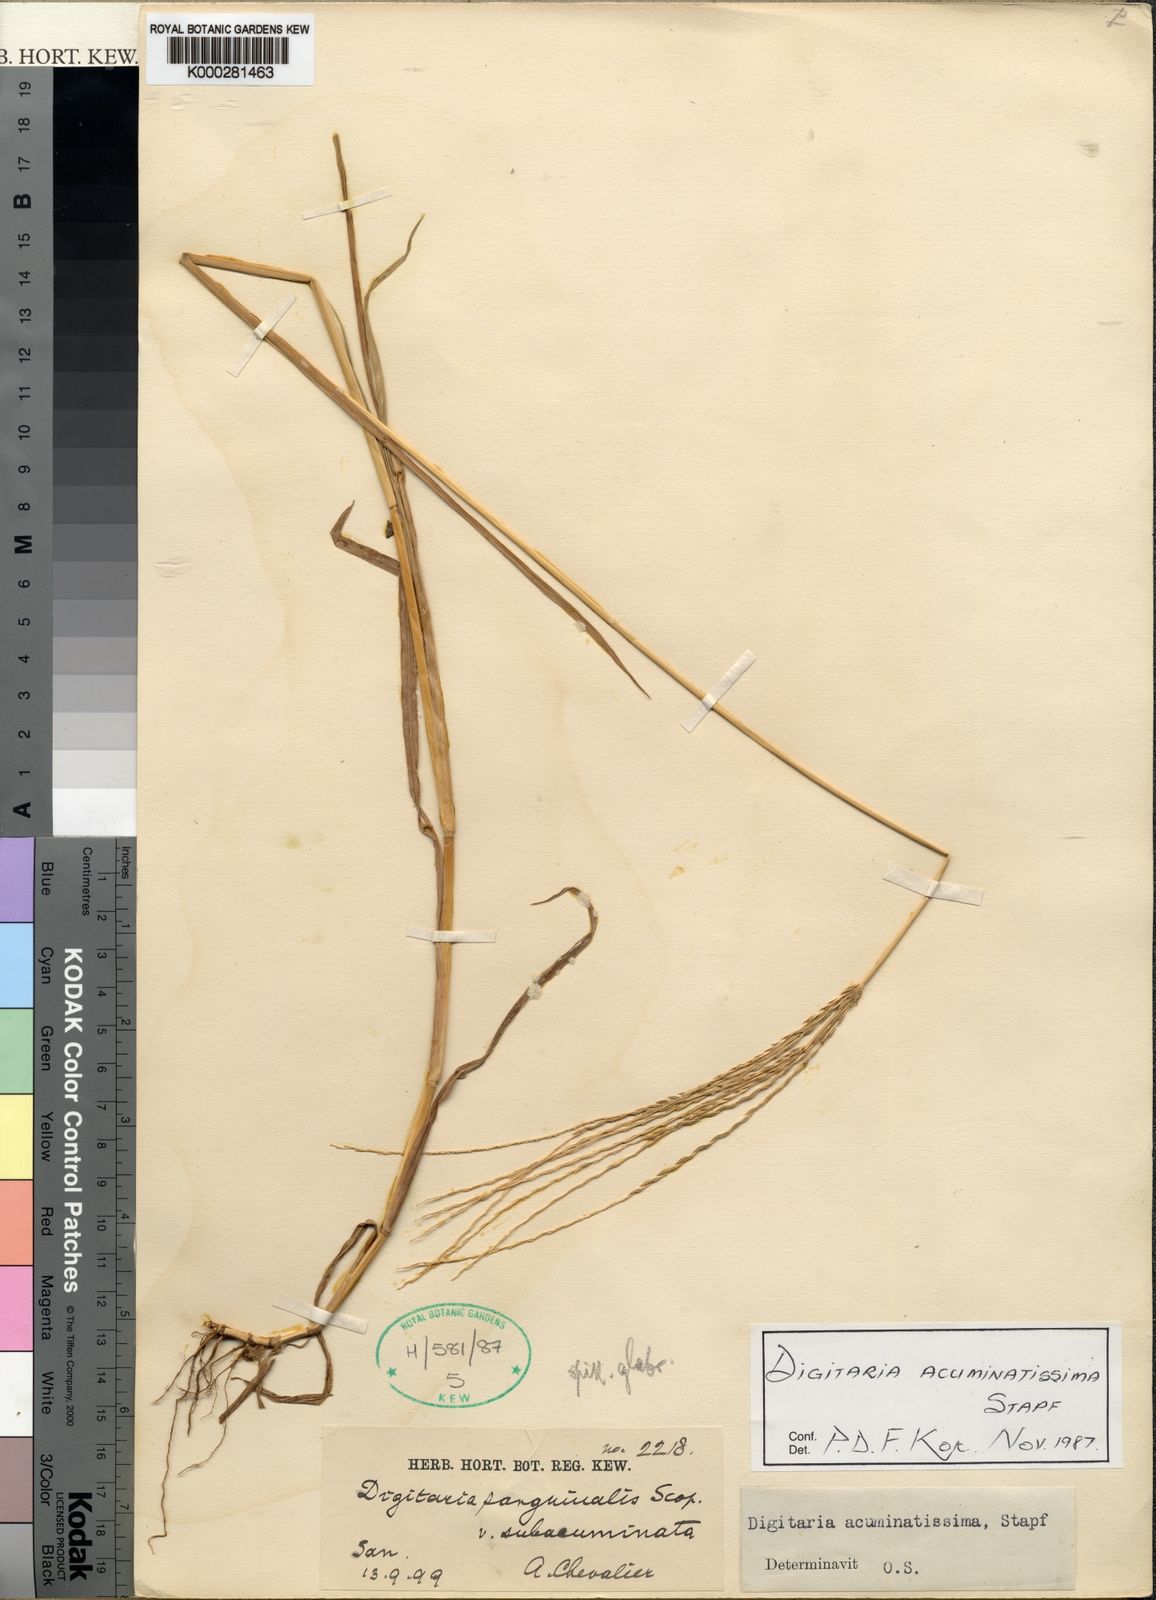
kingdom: Plantae
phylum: Tracheophyta
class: Liliopsida
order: Poales
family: Poaceae
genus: Digitaria
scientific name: Digitaria acuminatissima
